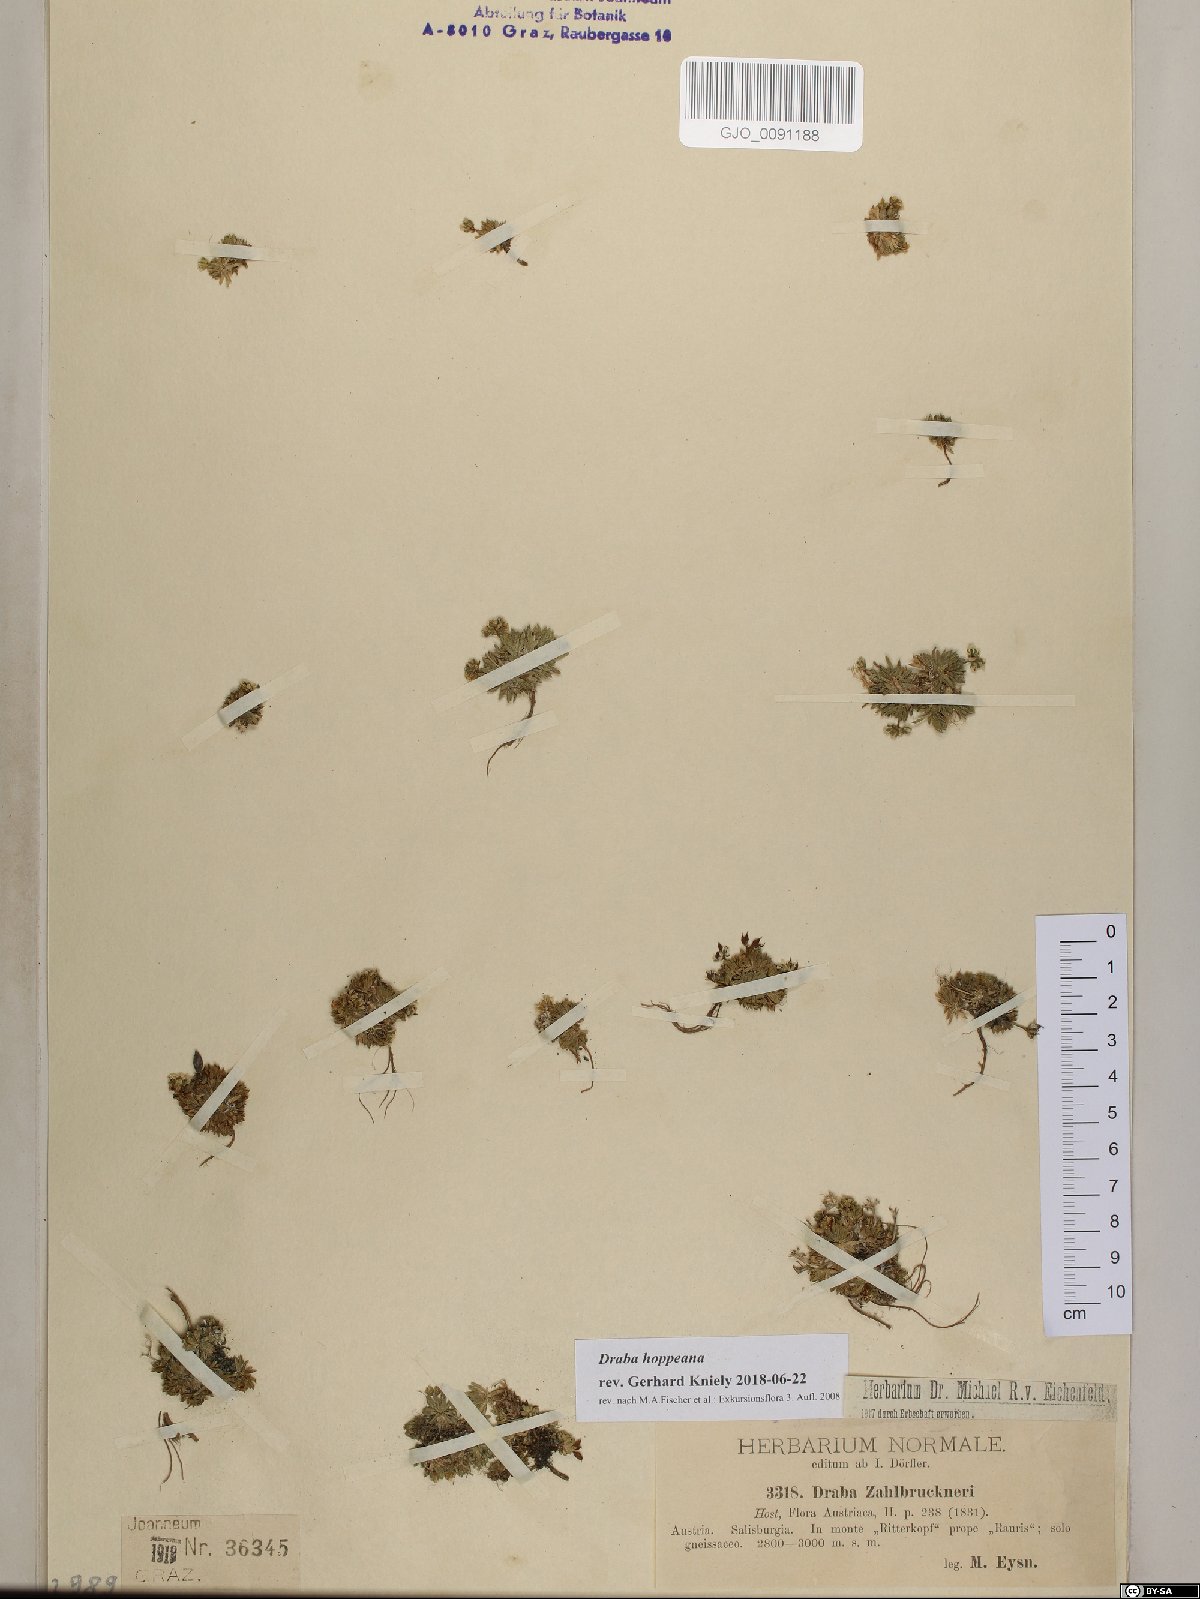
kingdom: Plantae
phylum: Tracheophyta
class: Magnoliopsida
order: Brassicales
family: Brassicaceae
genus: Draba
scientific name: Draba hoppeana
